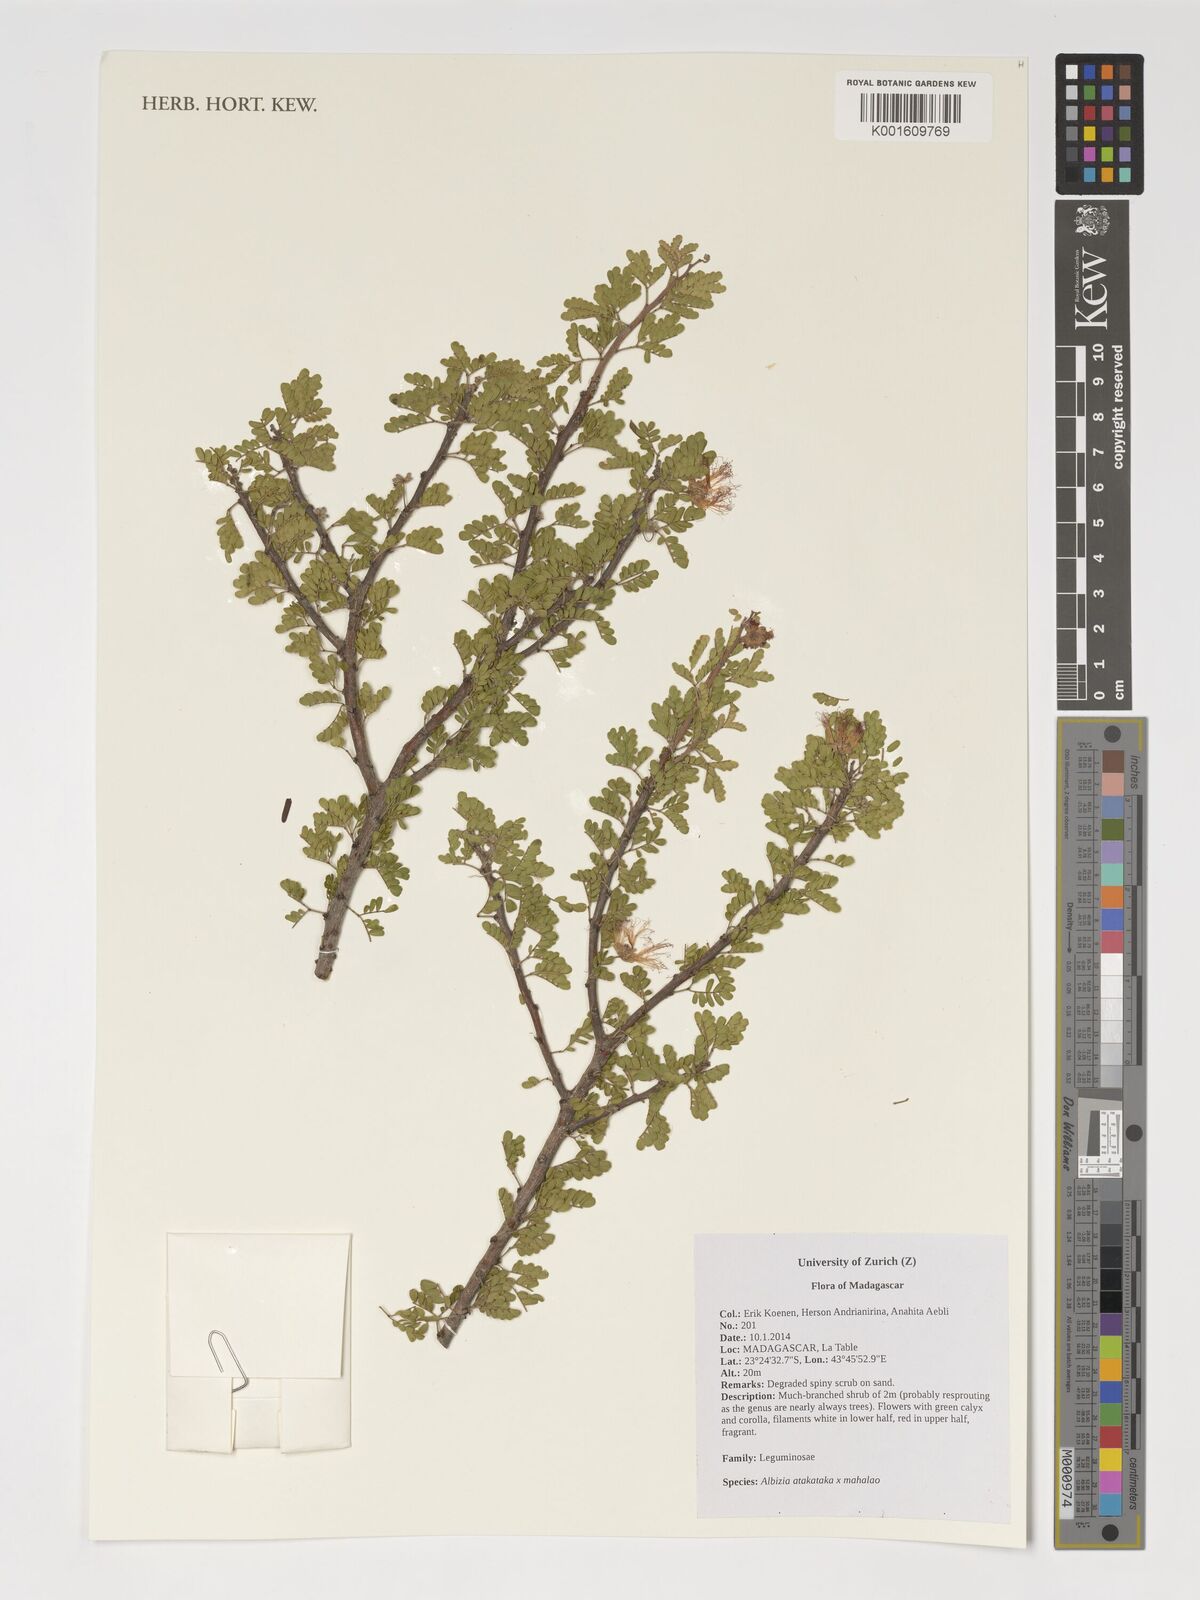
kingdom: Plantae
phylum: Tracheophyta
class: Magnoliopsida
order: Fabales
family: Fabaceae
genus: Albizia
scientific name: Albizia atakataka
